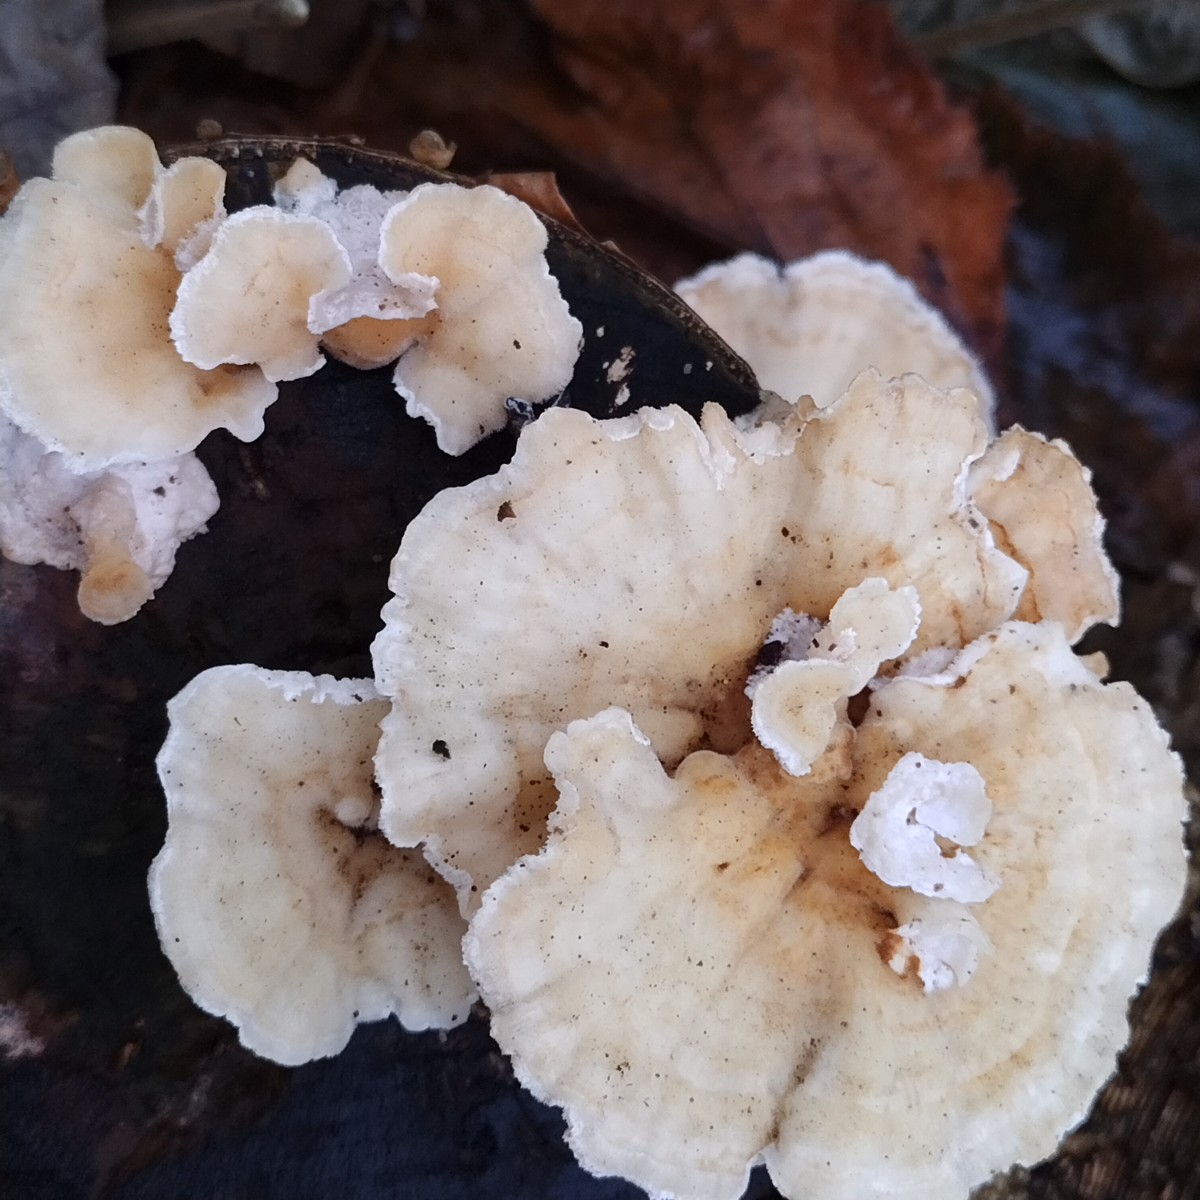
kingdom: Fungi
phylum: Basidiomycota
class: Agaricomycetes
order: Polyporales
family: Polyporaceae
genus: Trametes
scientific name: Trametes versicolor
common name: broget læderporesvamp
